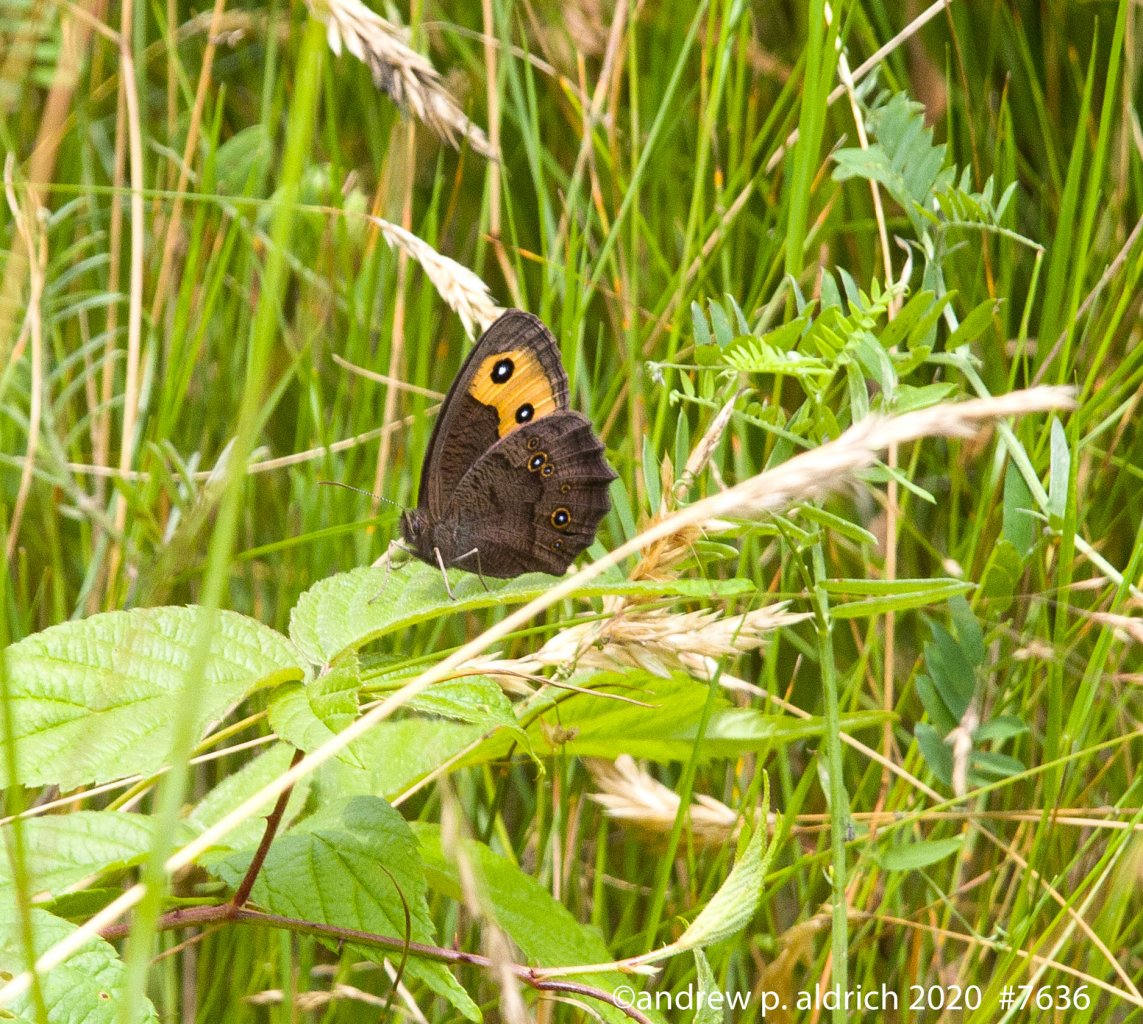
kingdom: Animalia
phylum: Arthropoda
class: Insecta
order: Lepidoptera
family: Nymphalidae
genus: Cercyonis
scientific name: Cercyonis pegala
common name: Common Wood-Nymph
